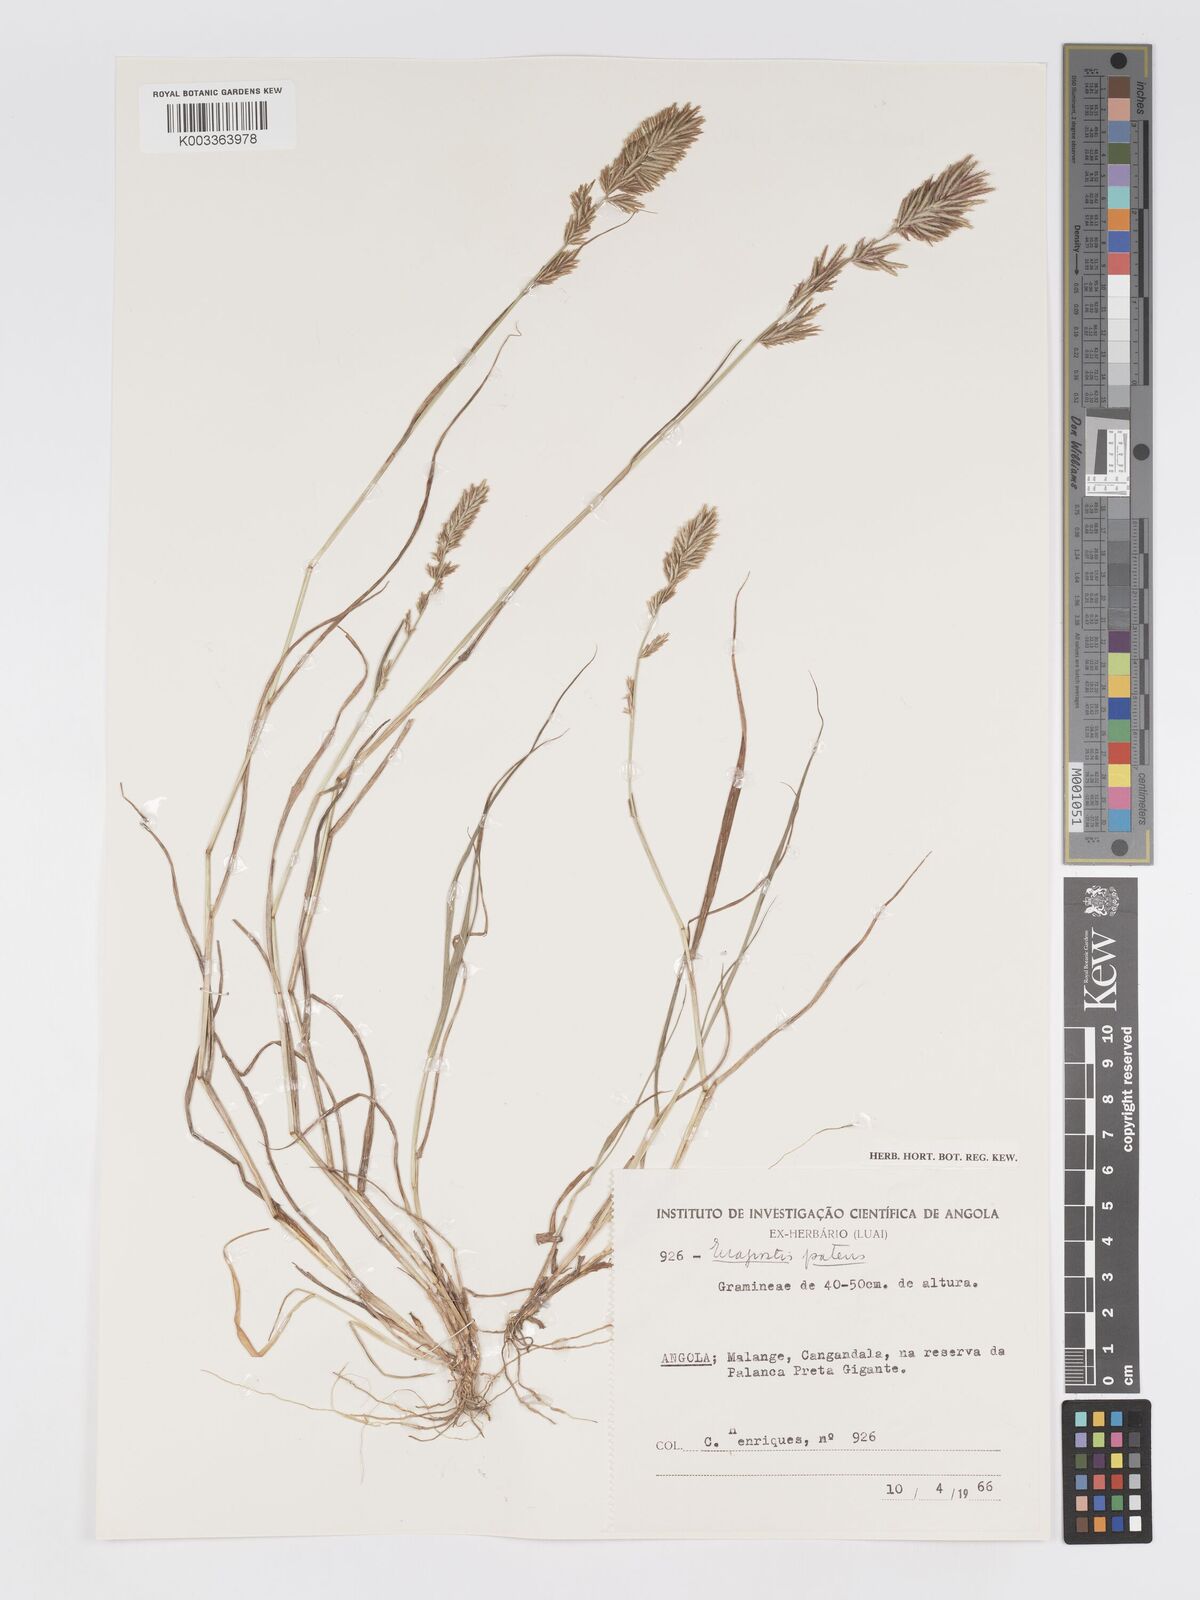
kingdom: Plantae
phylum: Tracheophyta
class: Liliopsida
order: Poales
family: Poaceae
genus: Eragrostis
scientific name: Eragrostis patens
